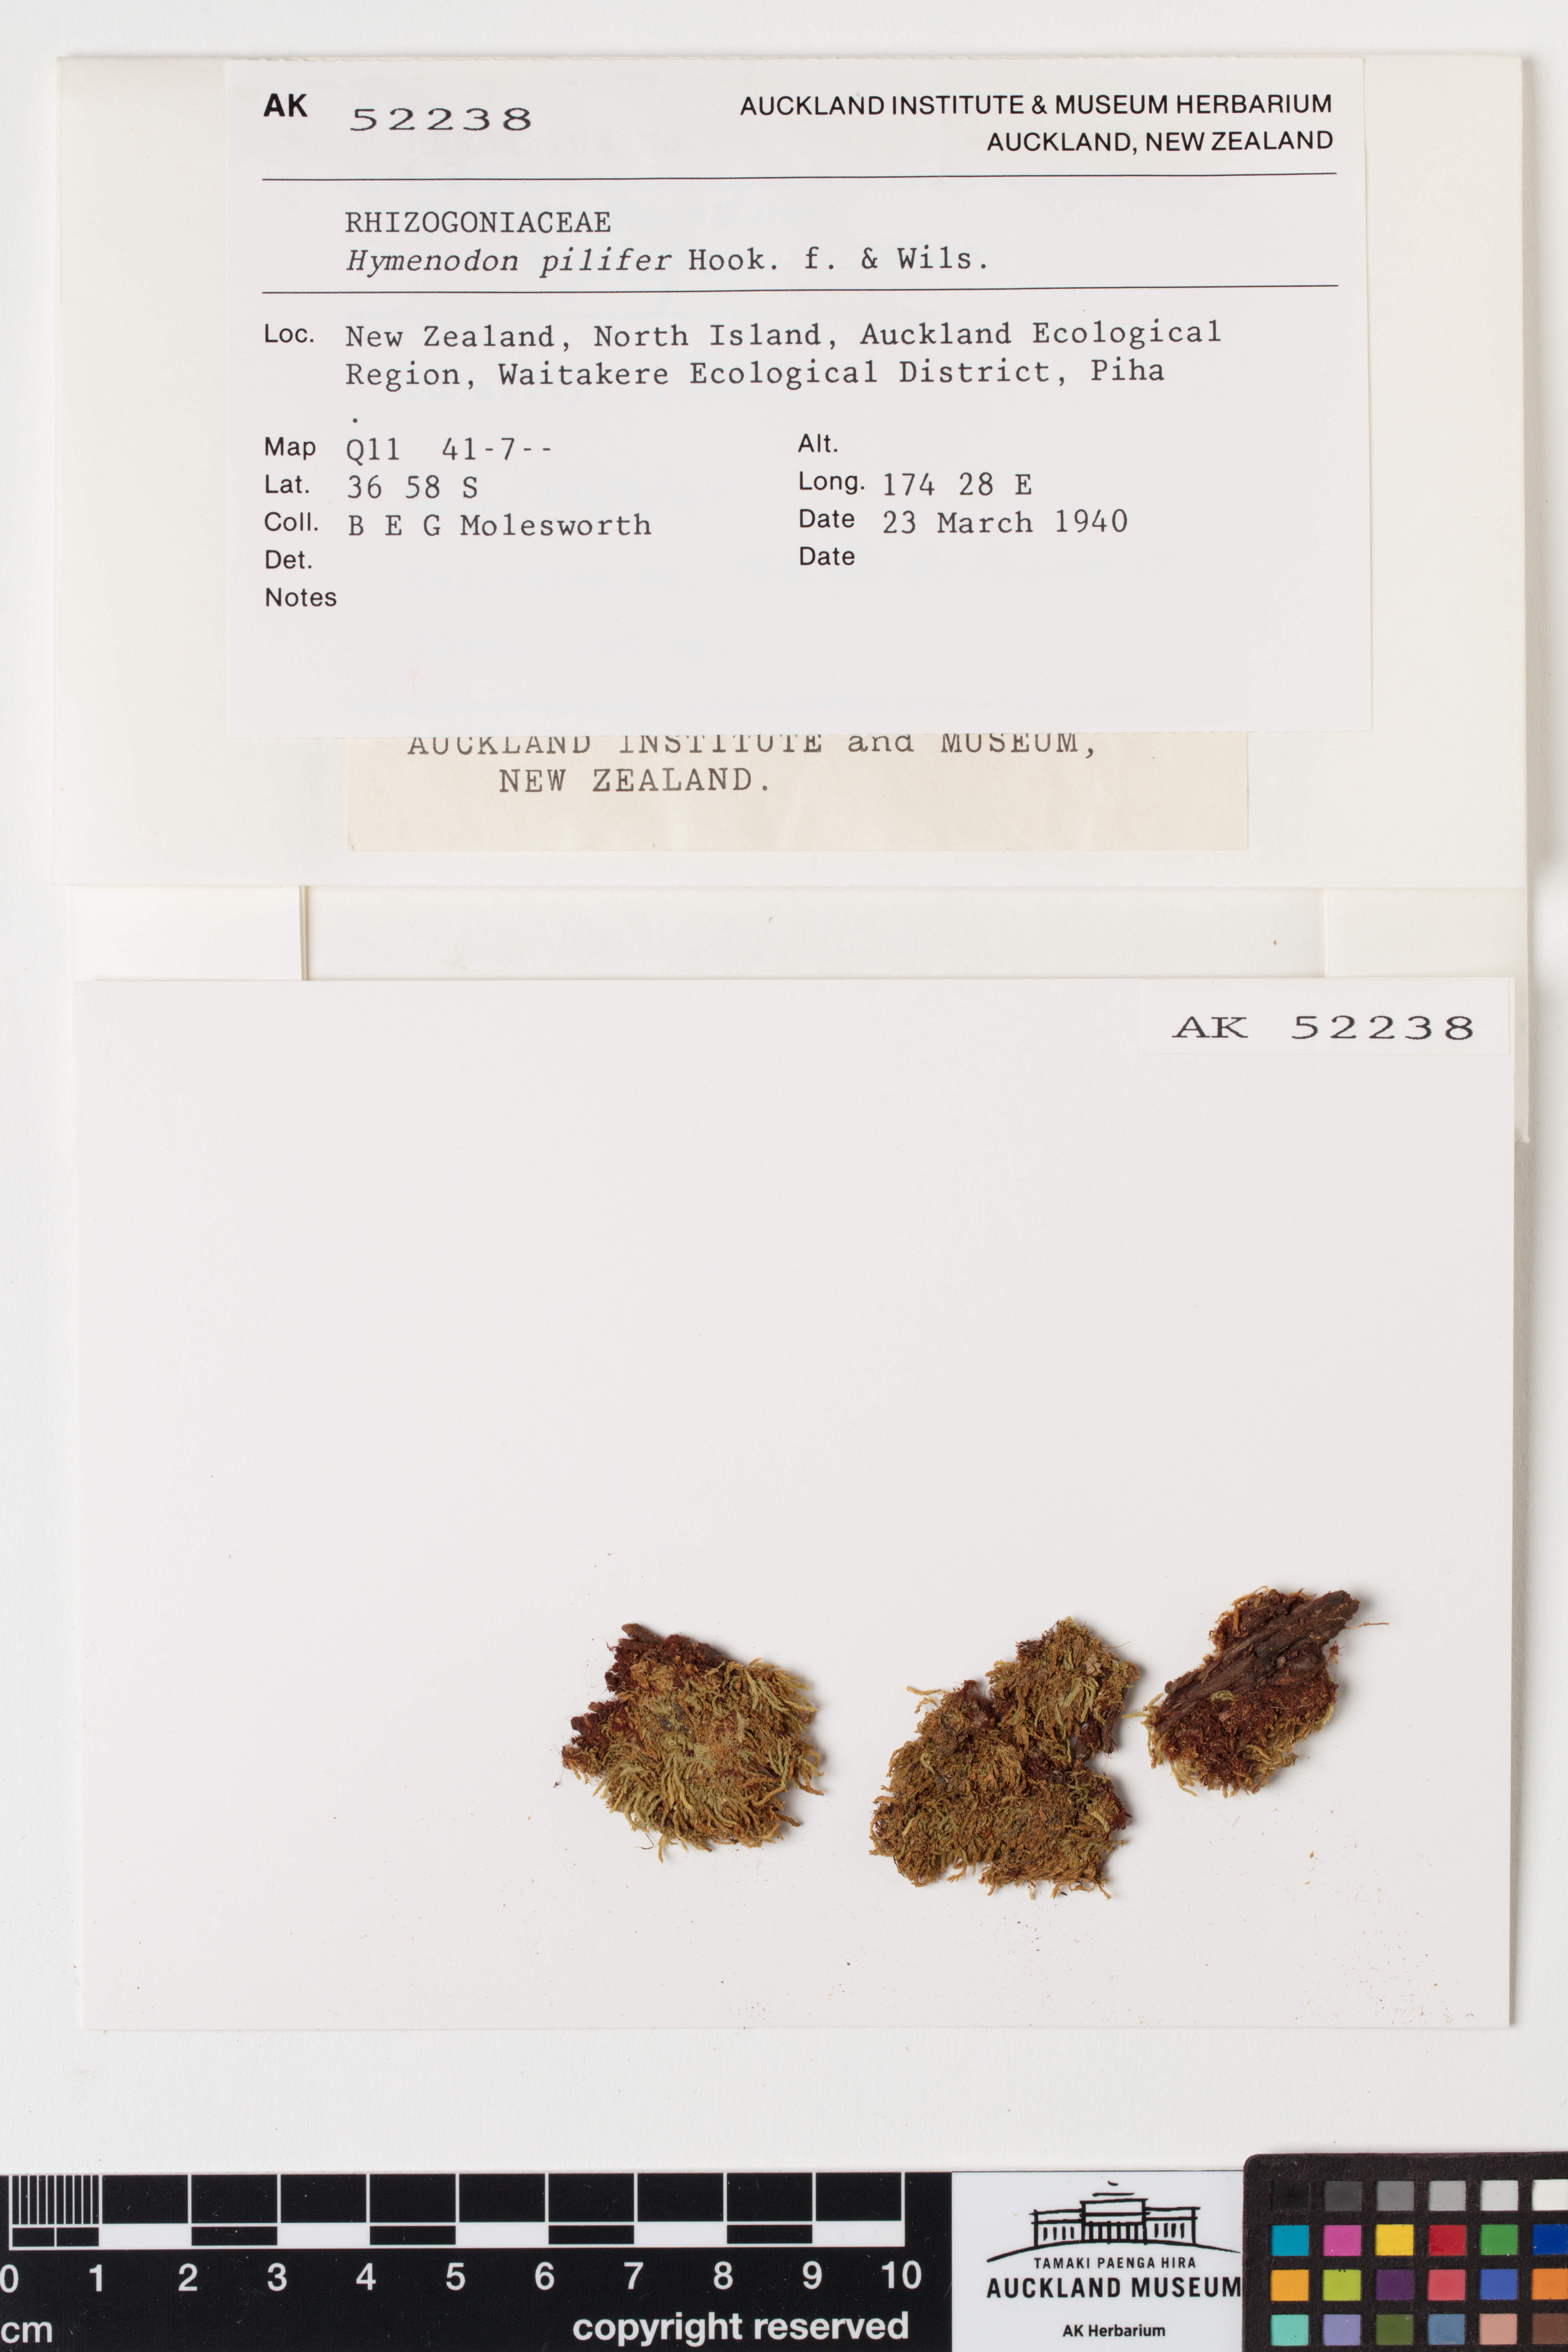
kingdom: Plantae
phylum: Bryophyta
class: Bryopsida
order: Orthodontiales
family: Orthodontiaceae
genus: Hymenodon
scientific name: Hymenodon pilifer
